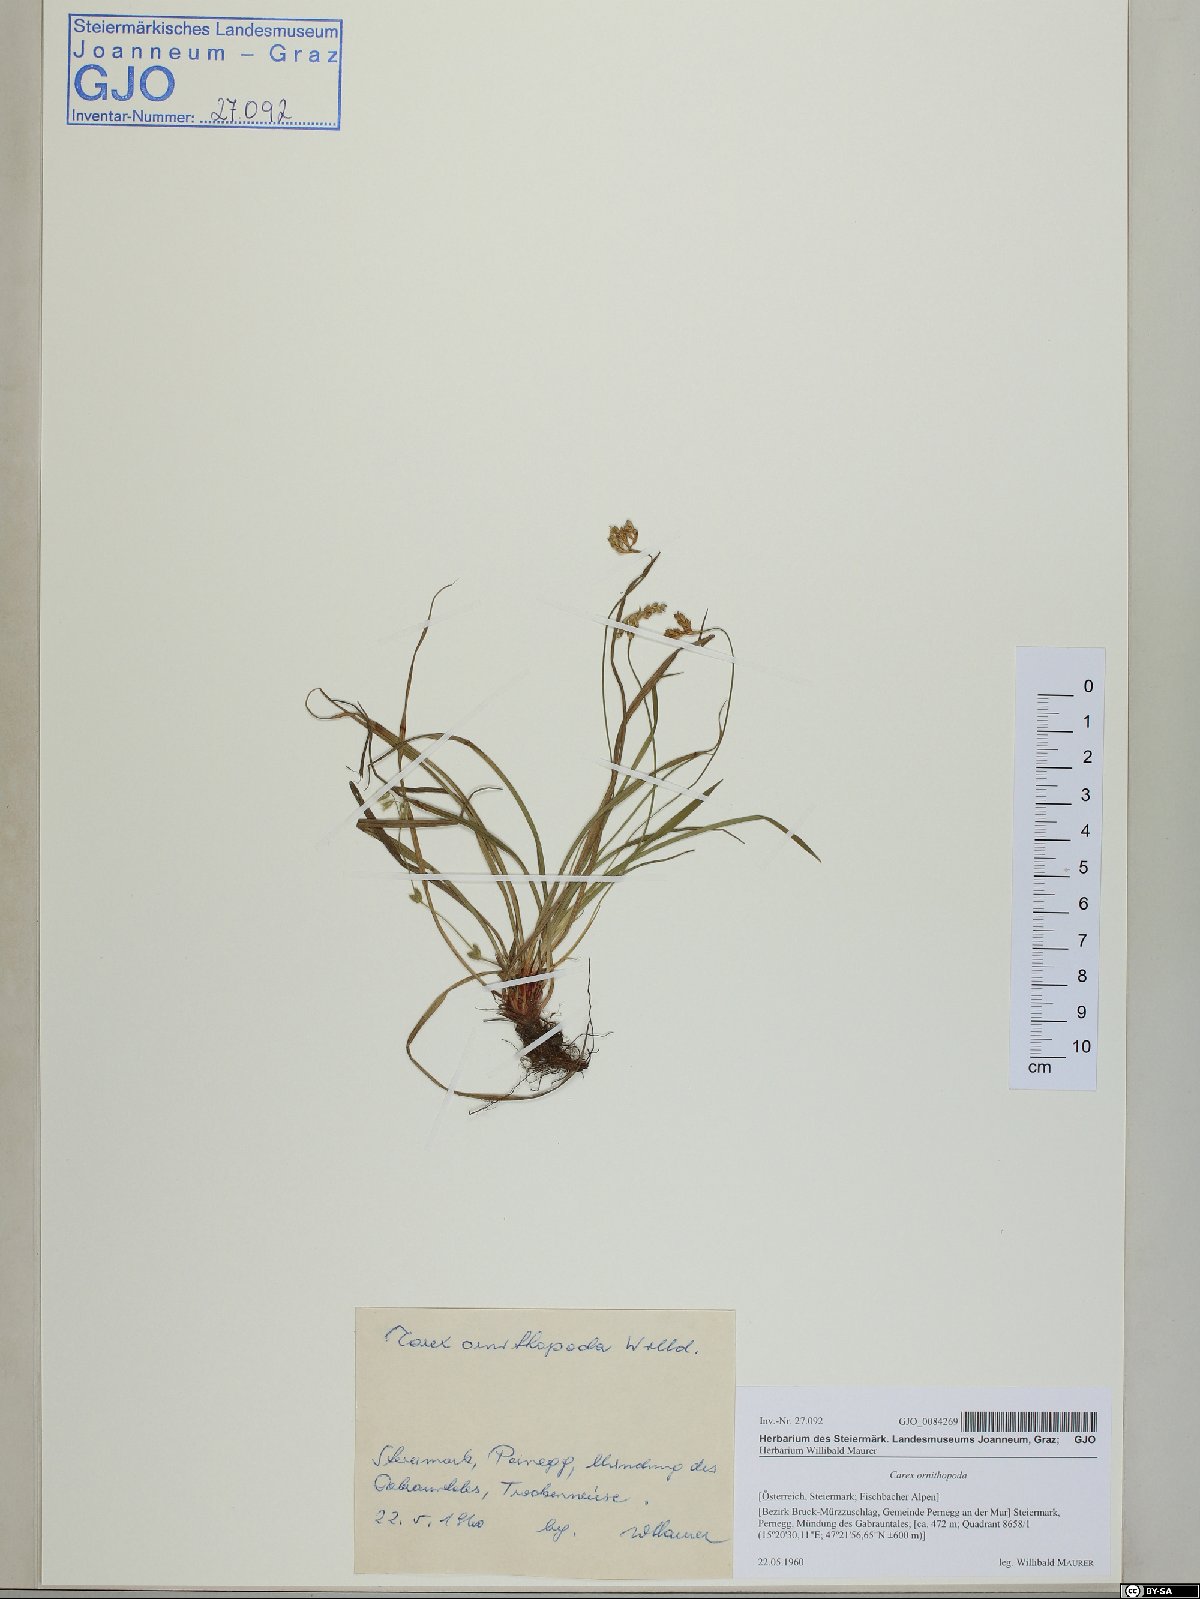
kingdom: Plantae
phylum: Tracheophyta
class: Liliopsida
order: Poales
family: Cyperaceae
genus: Carex
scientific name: Carex ornithopoda
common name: Bird's-foot sedge
